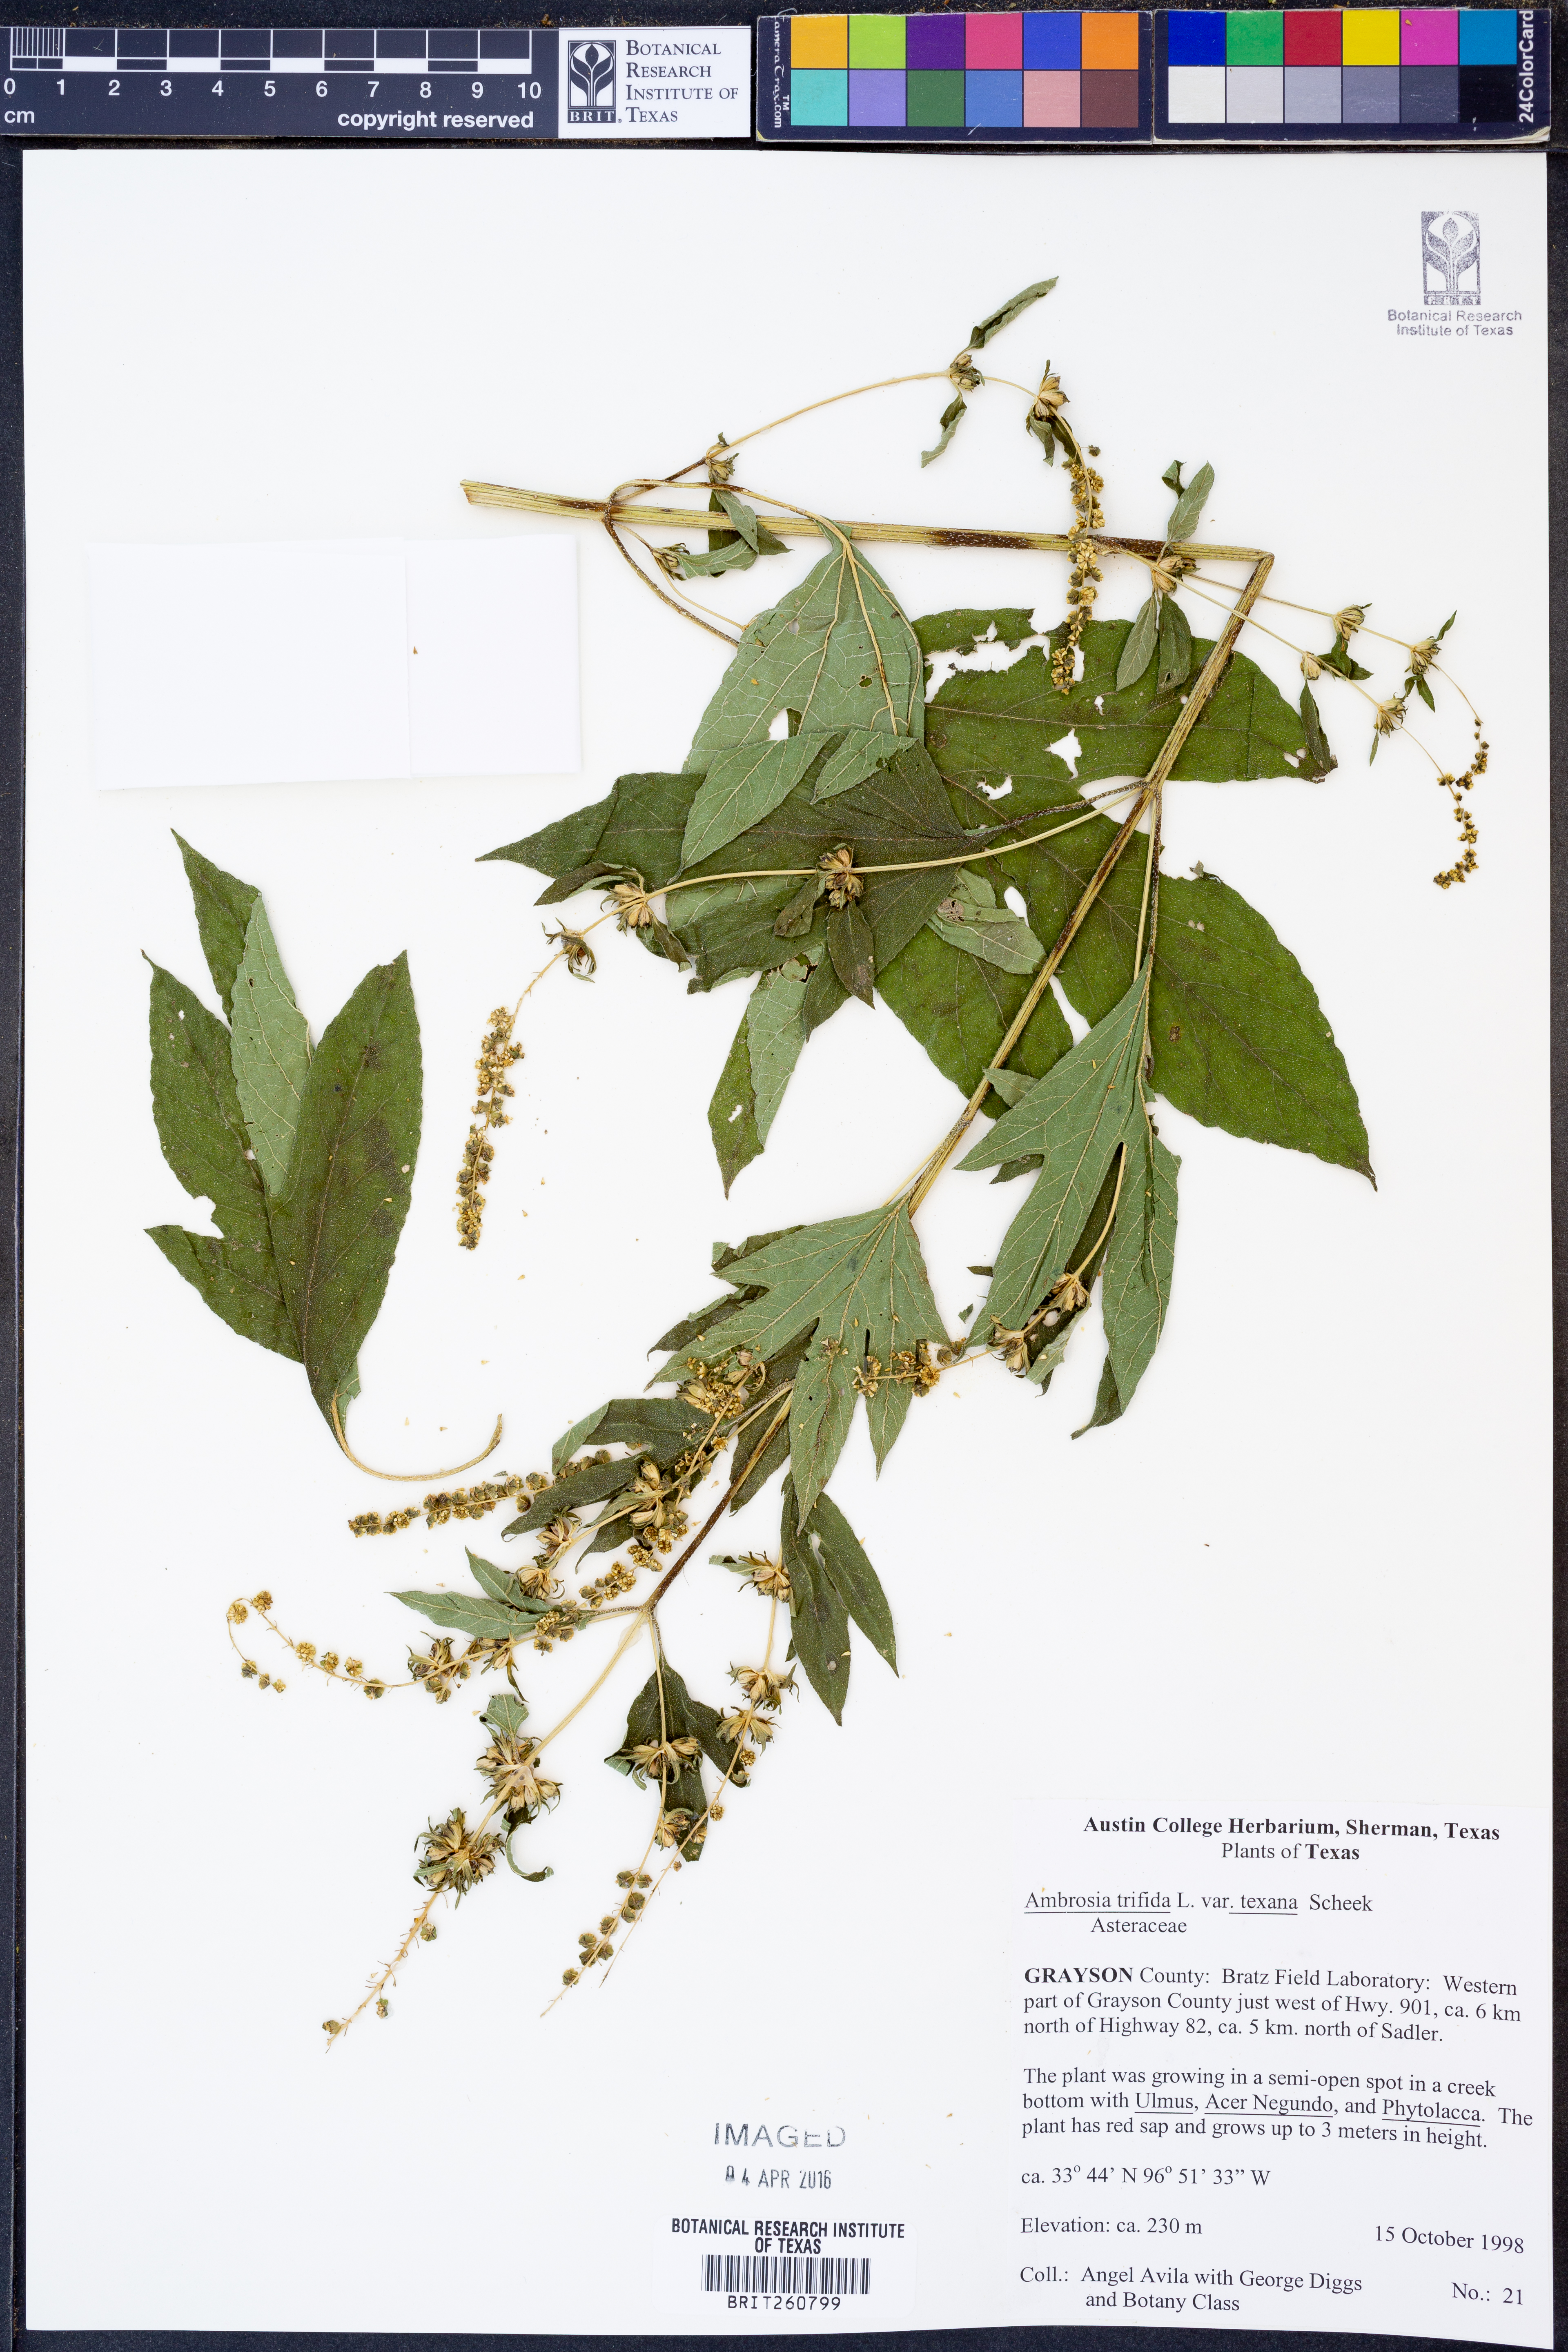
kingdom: Plantae
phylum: Tracheophyta
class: Magnoliopsida
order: Asterales
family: Asteraceae
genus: Ambrosia
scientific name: Ambrosia trifida
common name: Giant ragweed
